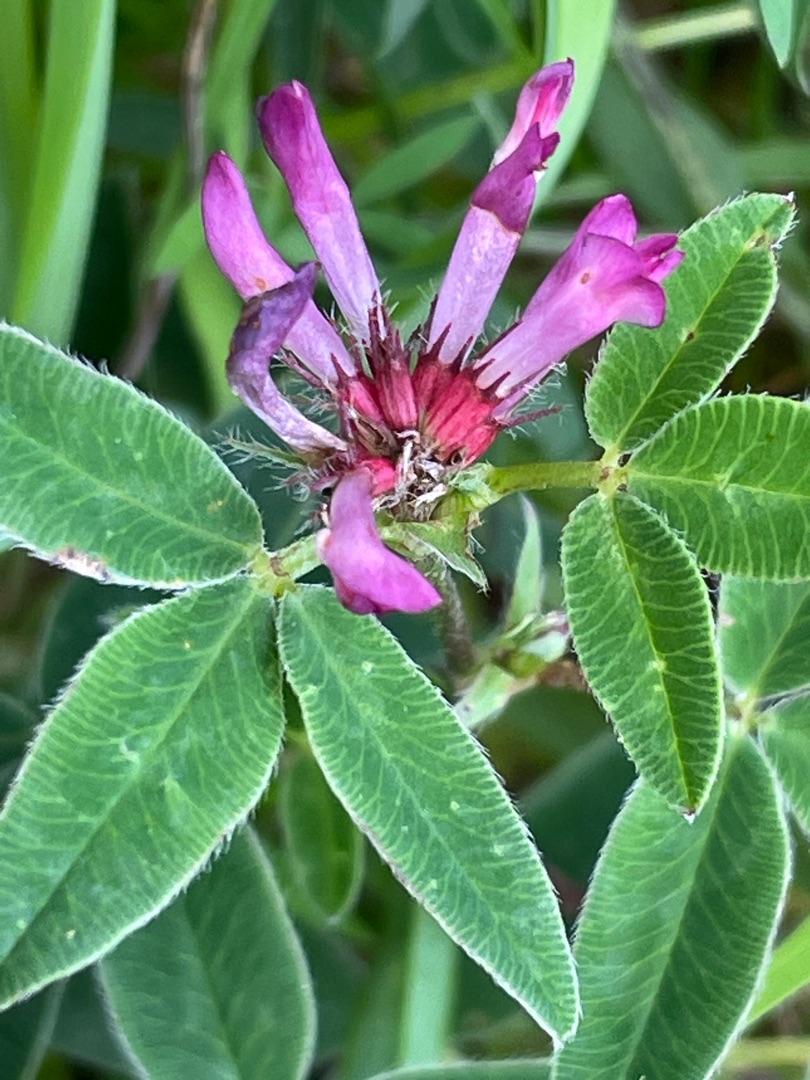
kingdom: Plantae
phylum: Tracheophyta
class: Magnoliopsida
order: Fabales
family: Fabaceae
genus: Trifolium
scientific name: Trifolium medium
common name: Bugtet kløver
